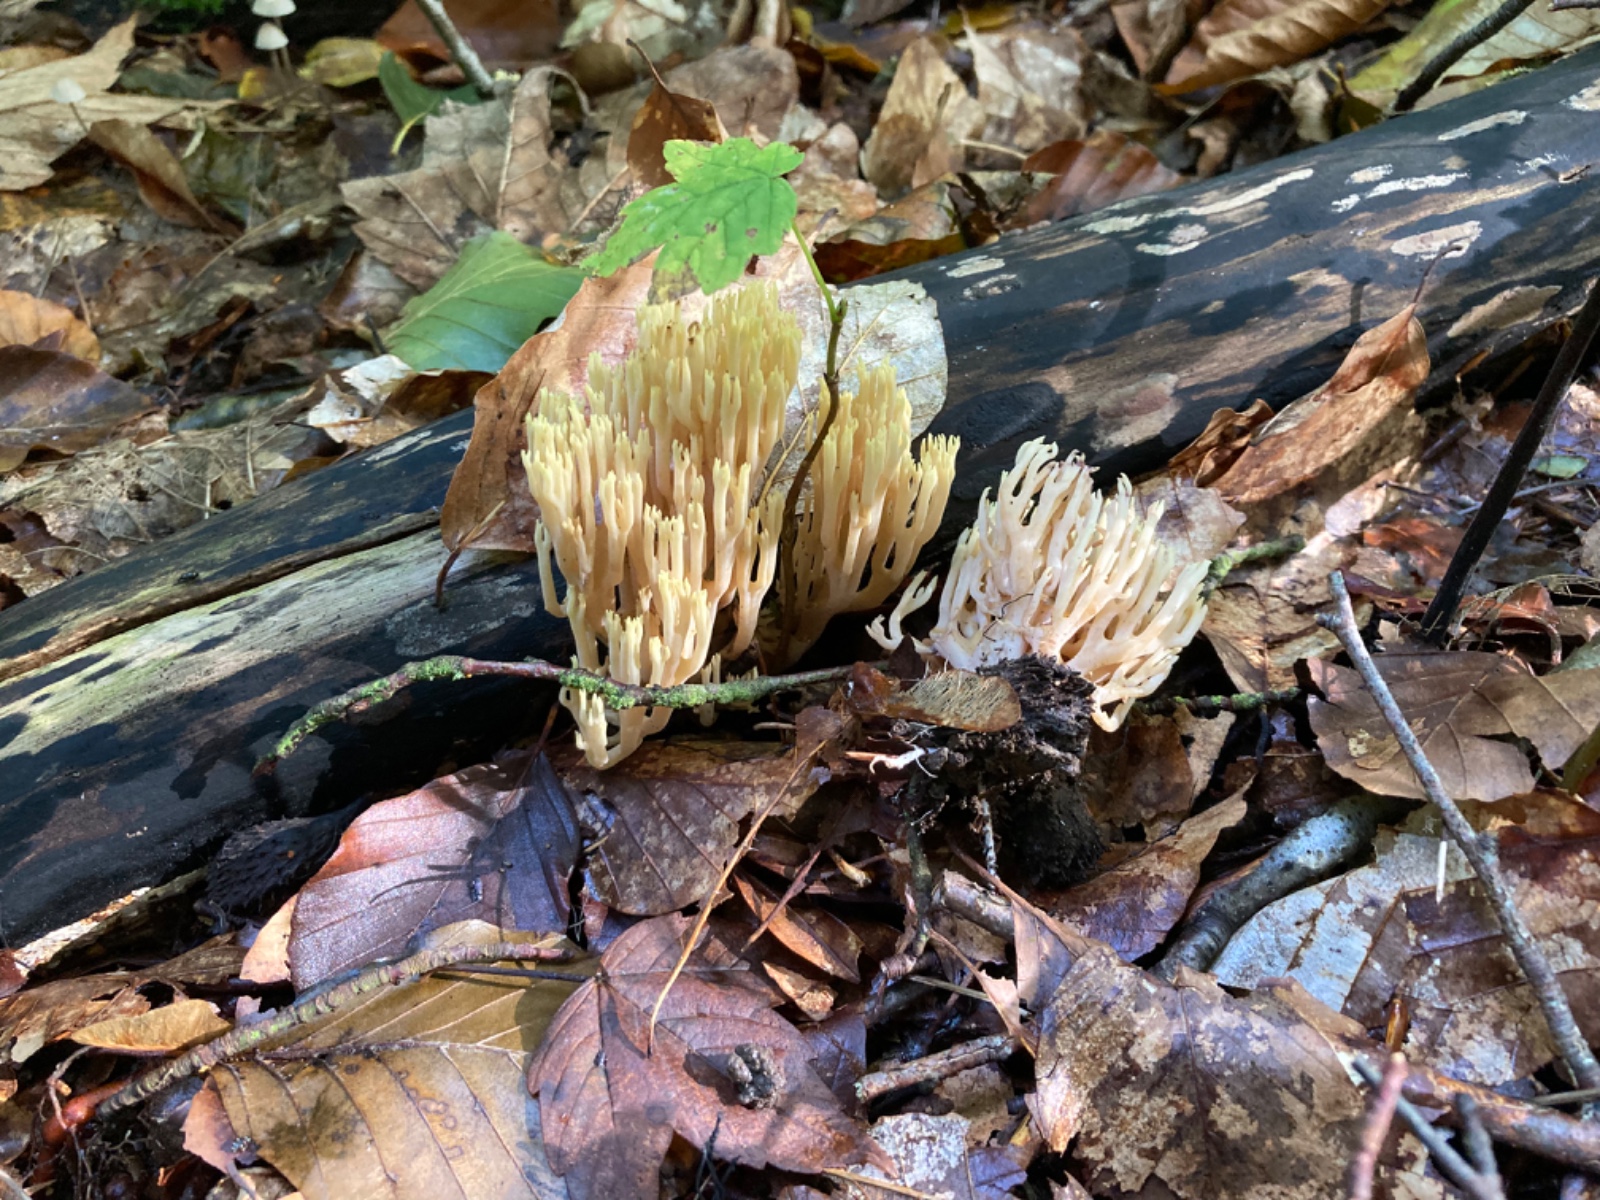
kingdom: Fungi
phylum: Basidiomycota
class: Agaricomycetes
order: Gomphales
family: Gomphaceae
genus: Ramaria
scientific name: Ramaria stricta
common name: rank koralsvamp
